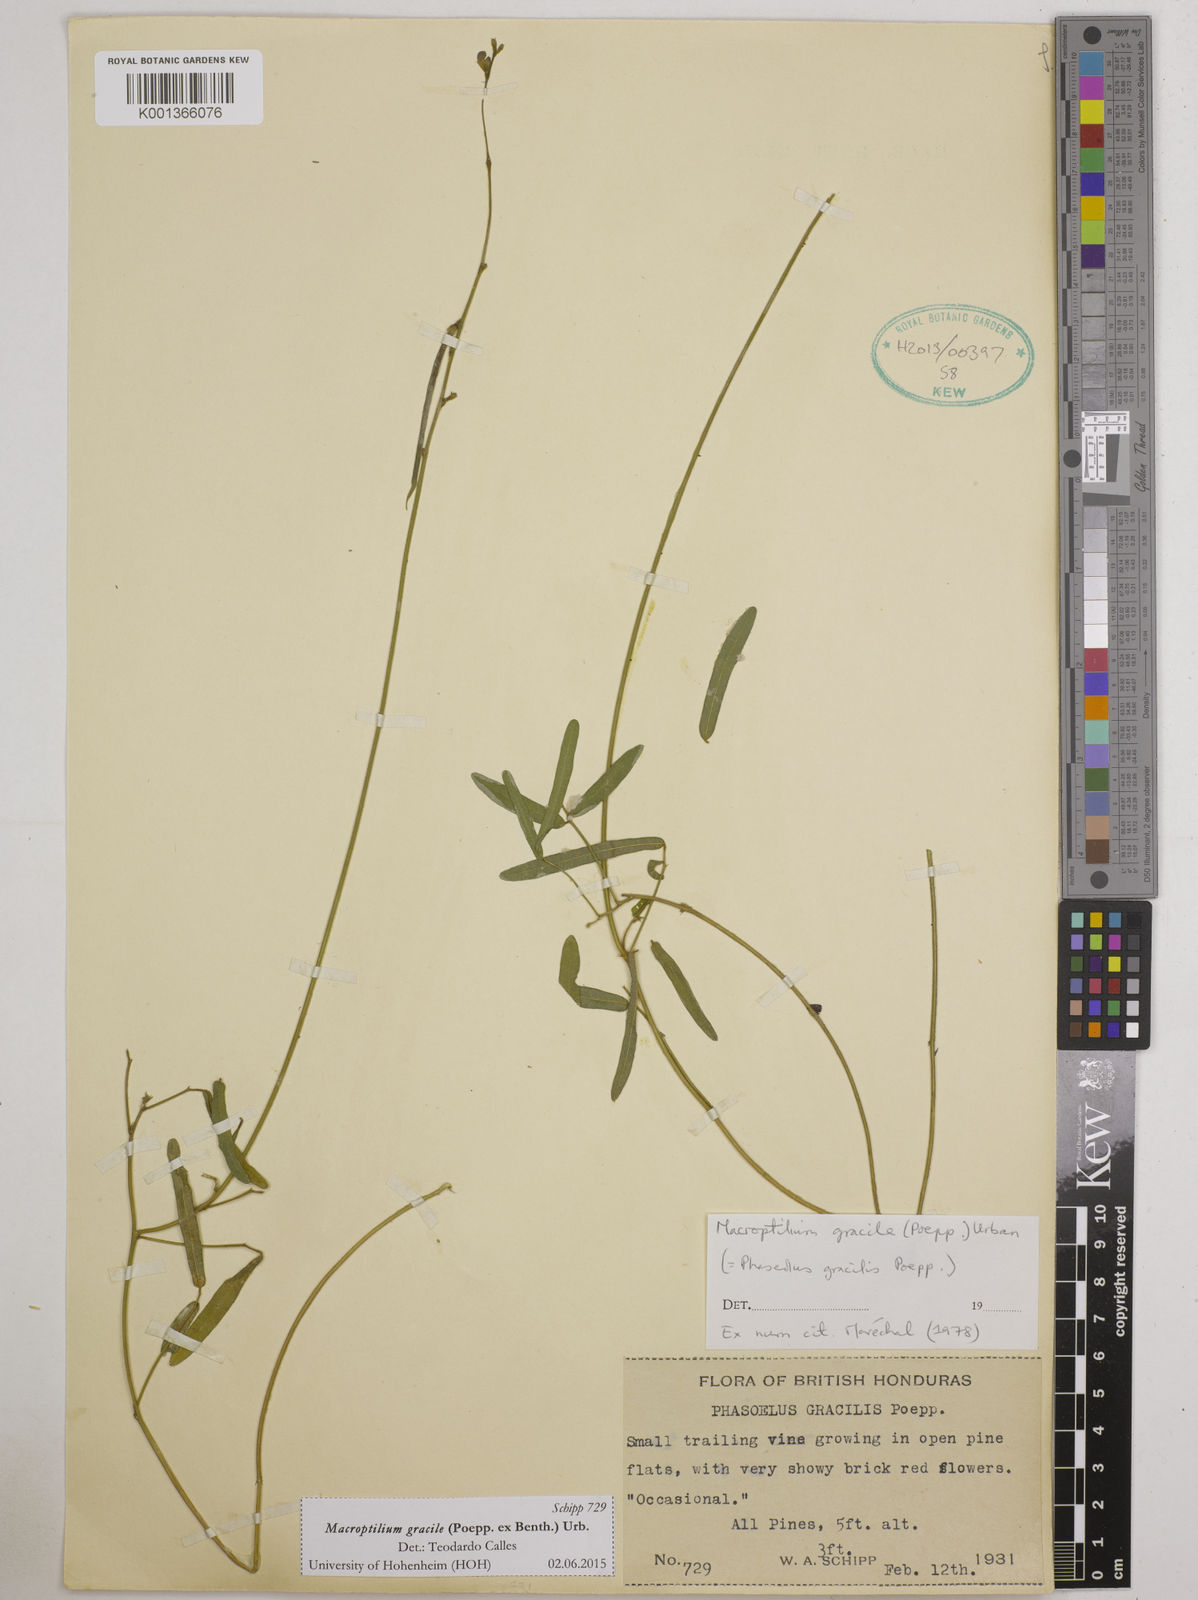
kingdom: Plantae
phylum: Tracheophyta
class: Magnoliopsida
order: Fabales
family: Fabaceae
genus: Macroptilium
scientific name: Macroptilium gracile
